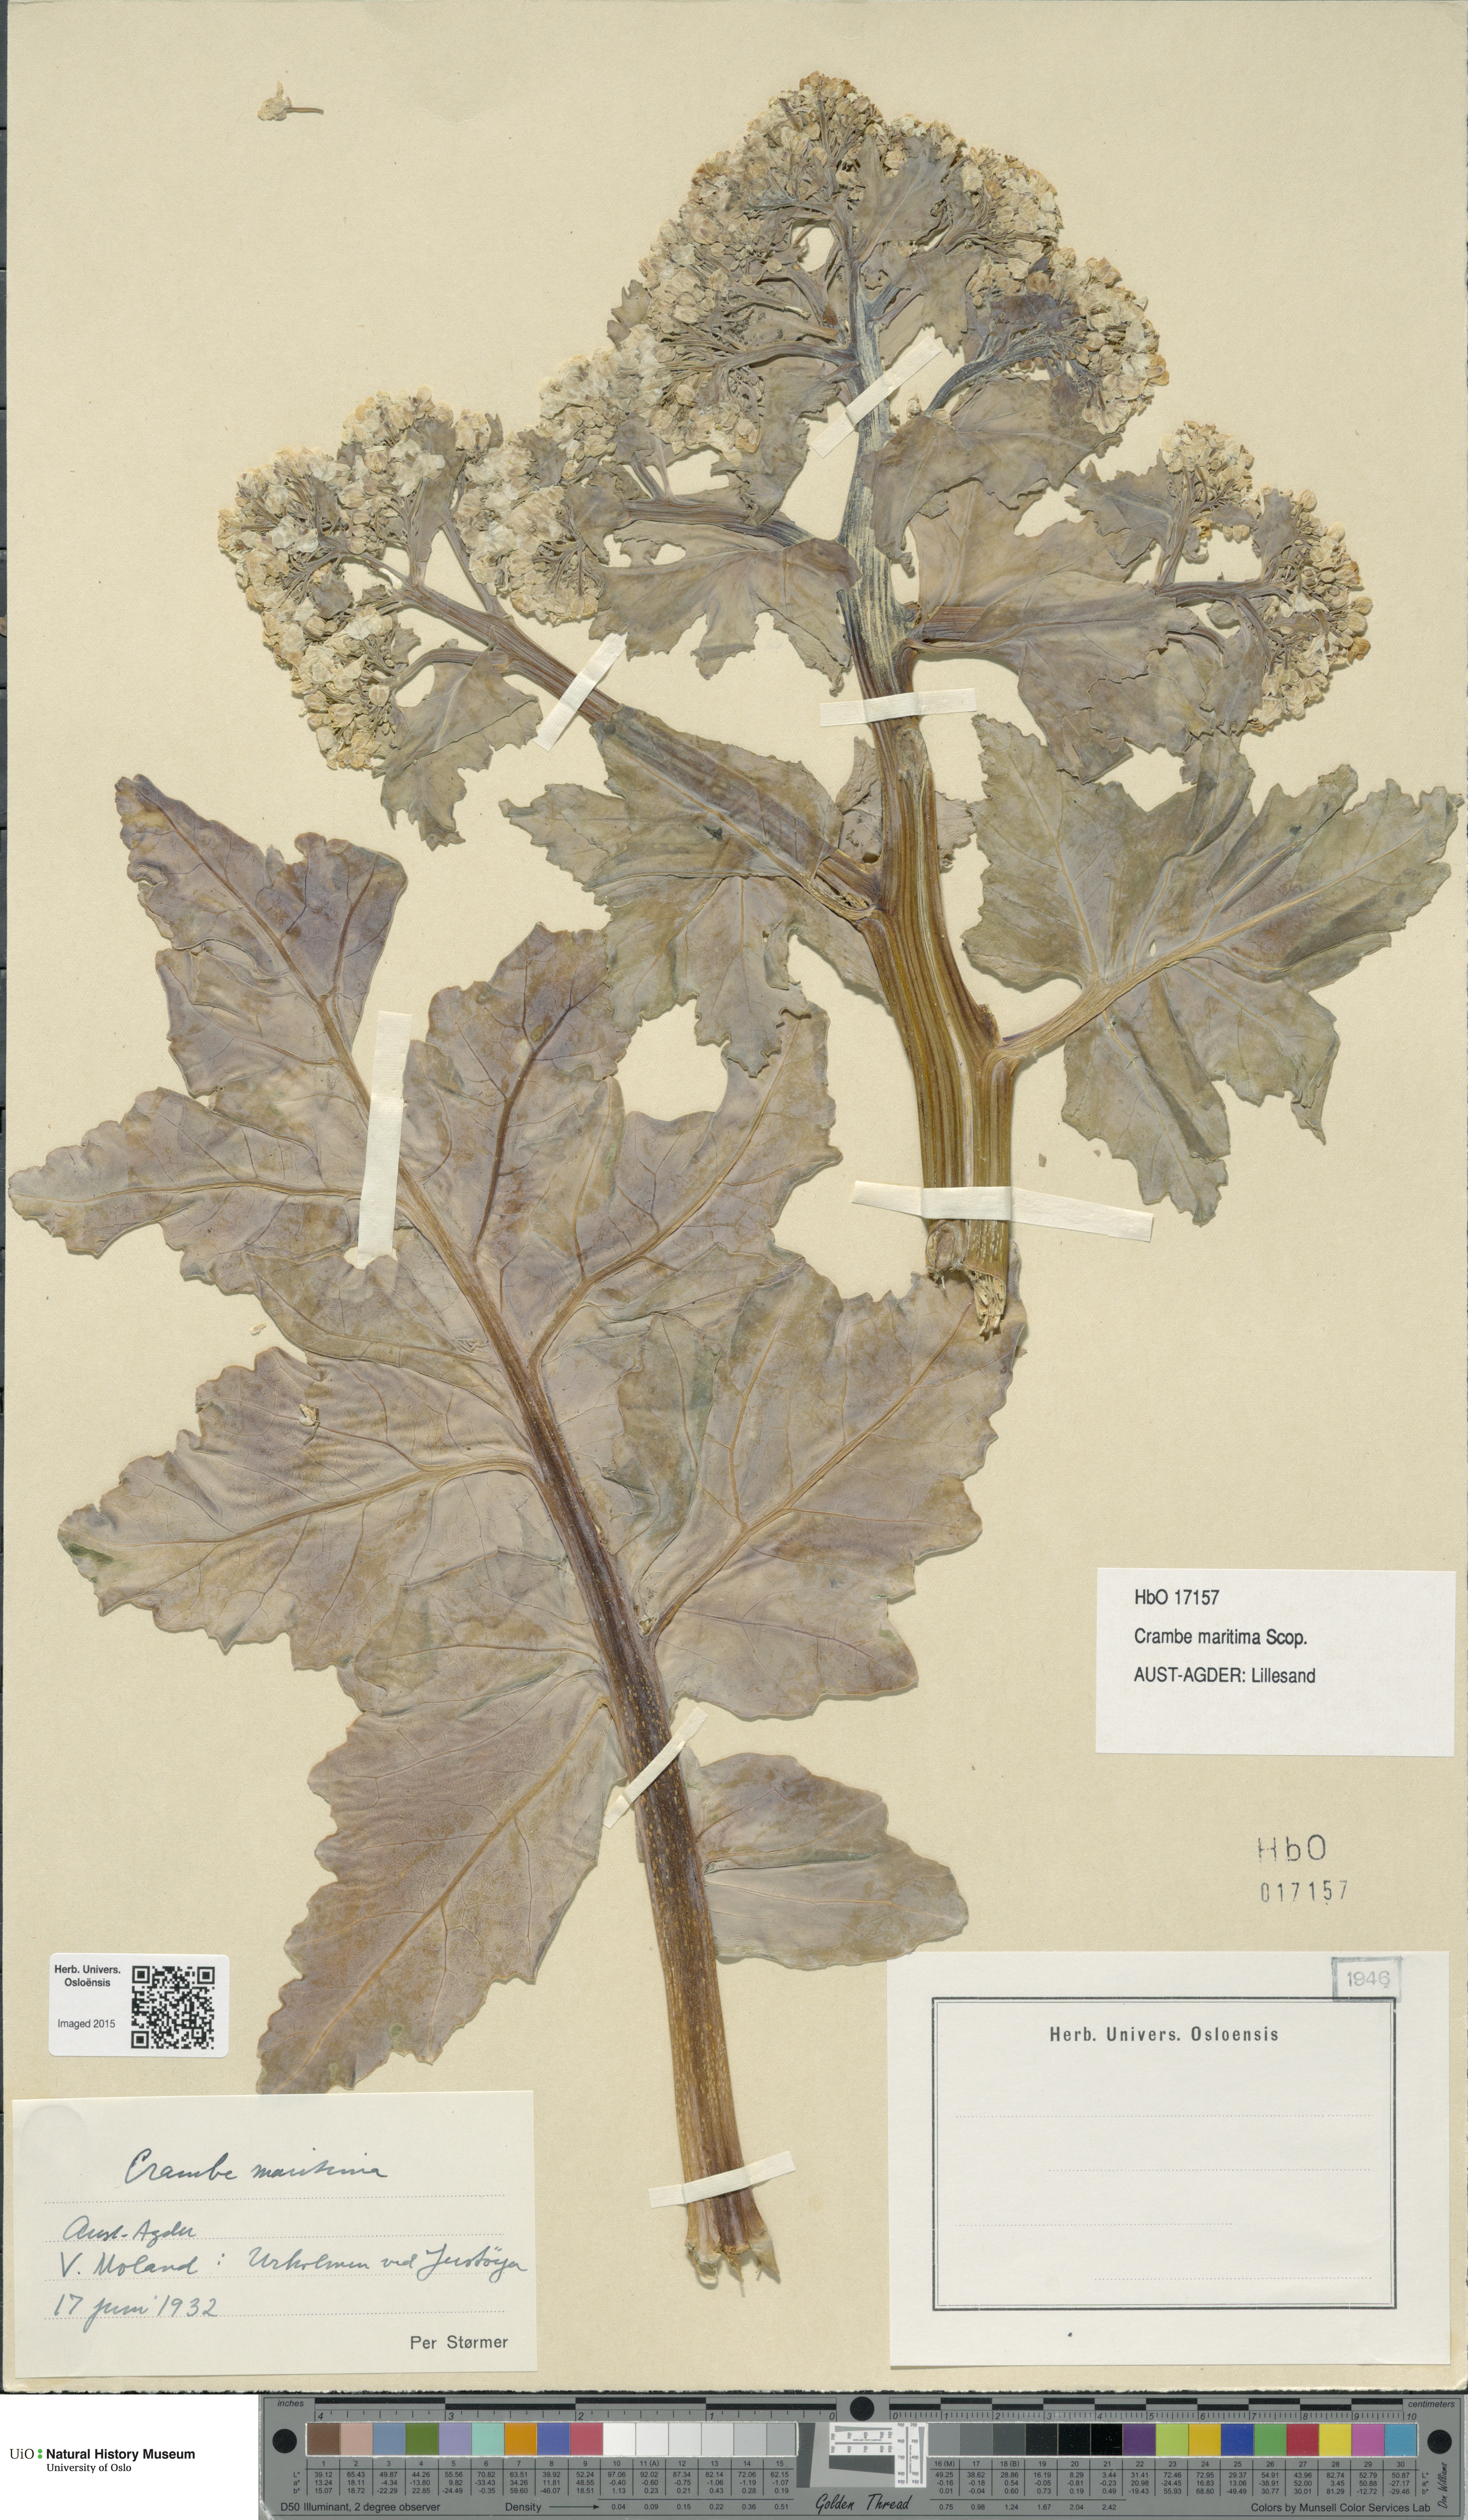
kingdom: Plantae
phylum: Tracheophyta
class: Magnoliopsida
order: Brassicales
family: Brassicaceae
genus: Crambe
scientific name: Crambe maritima
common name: Sea-kale
